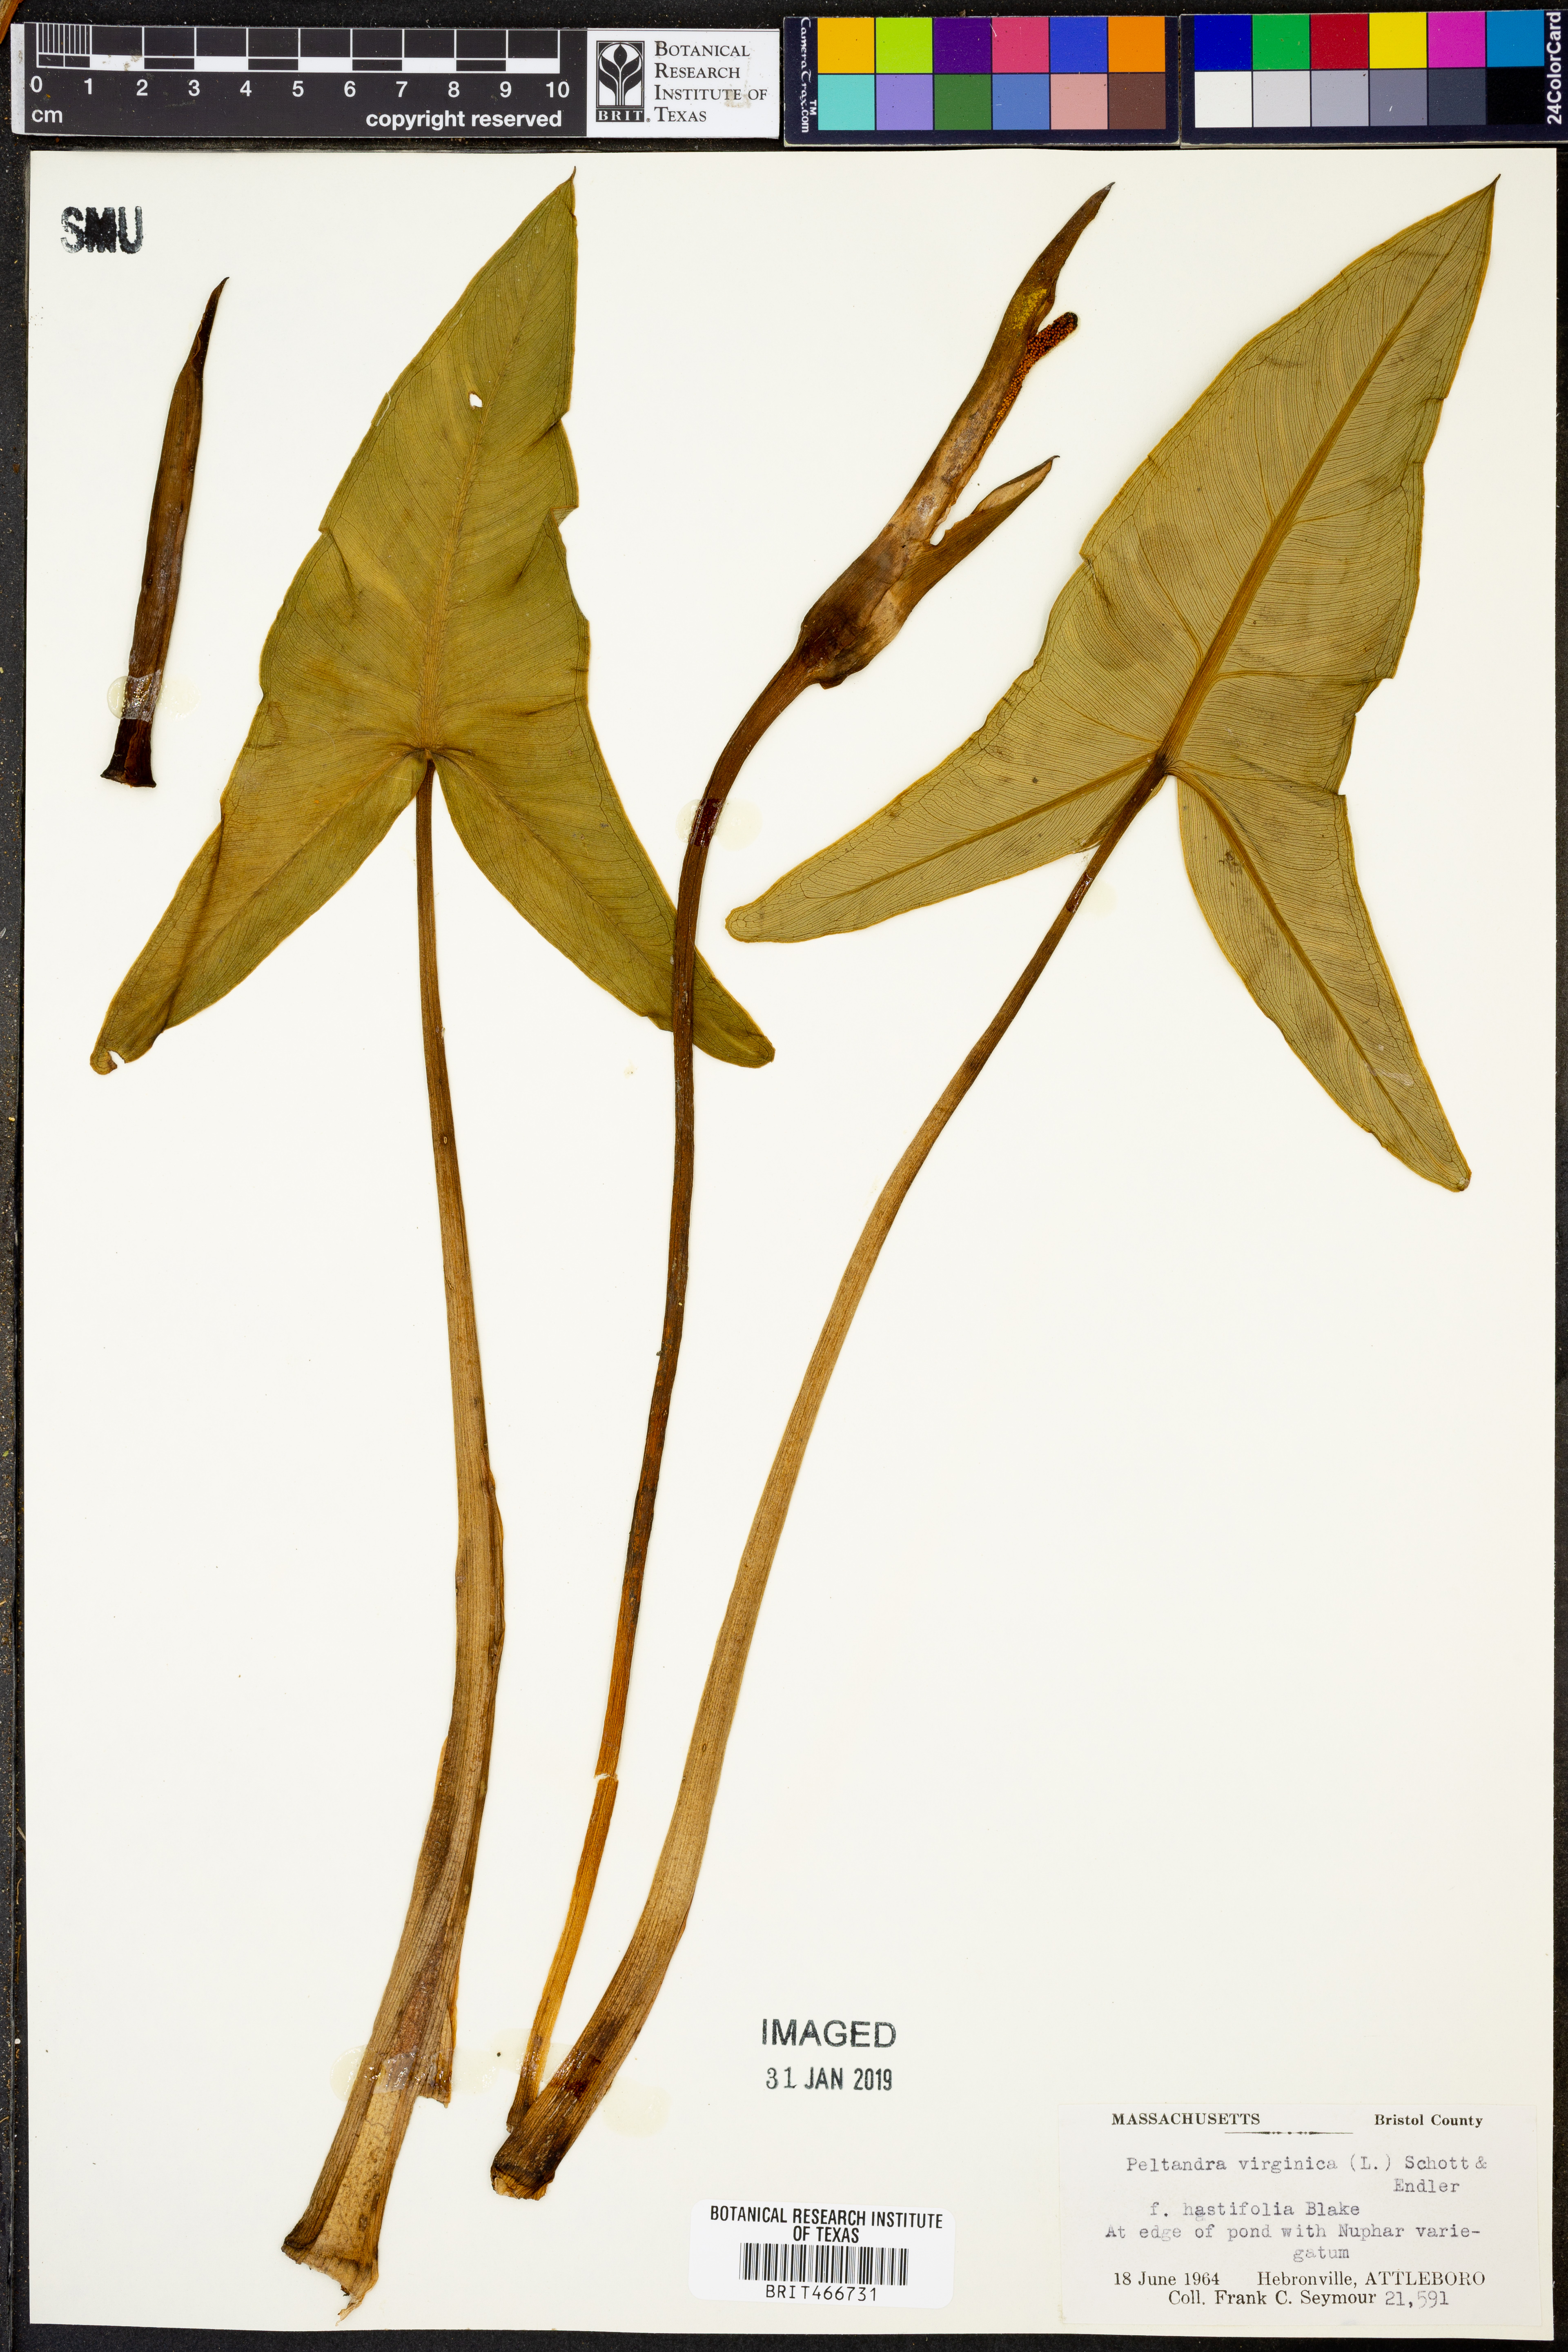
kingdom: Plantae
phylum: Tracheophyta
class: Liliopsida
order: Alismatales
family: Araceae
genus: Peltandra
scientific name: Peltandra virginica
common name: Arrow arum
